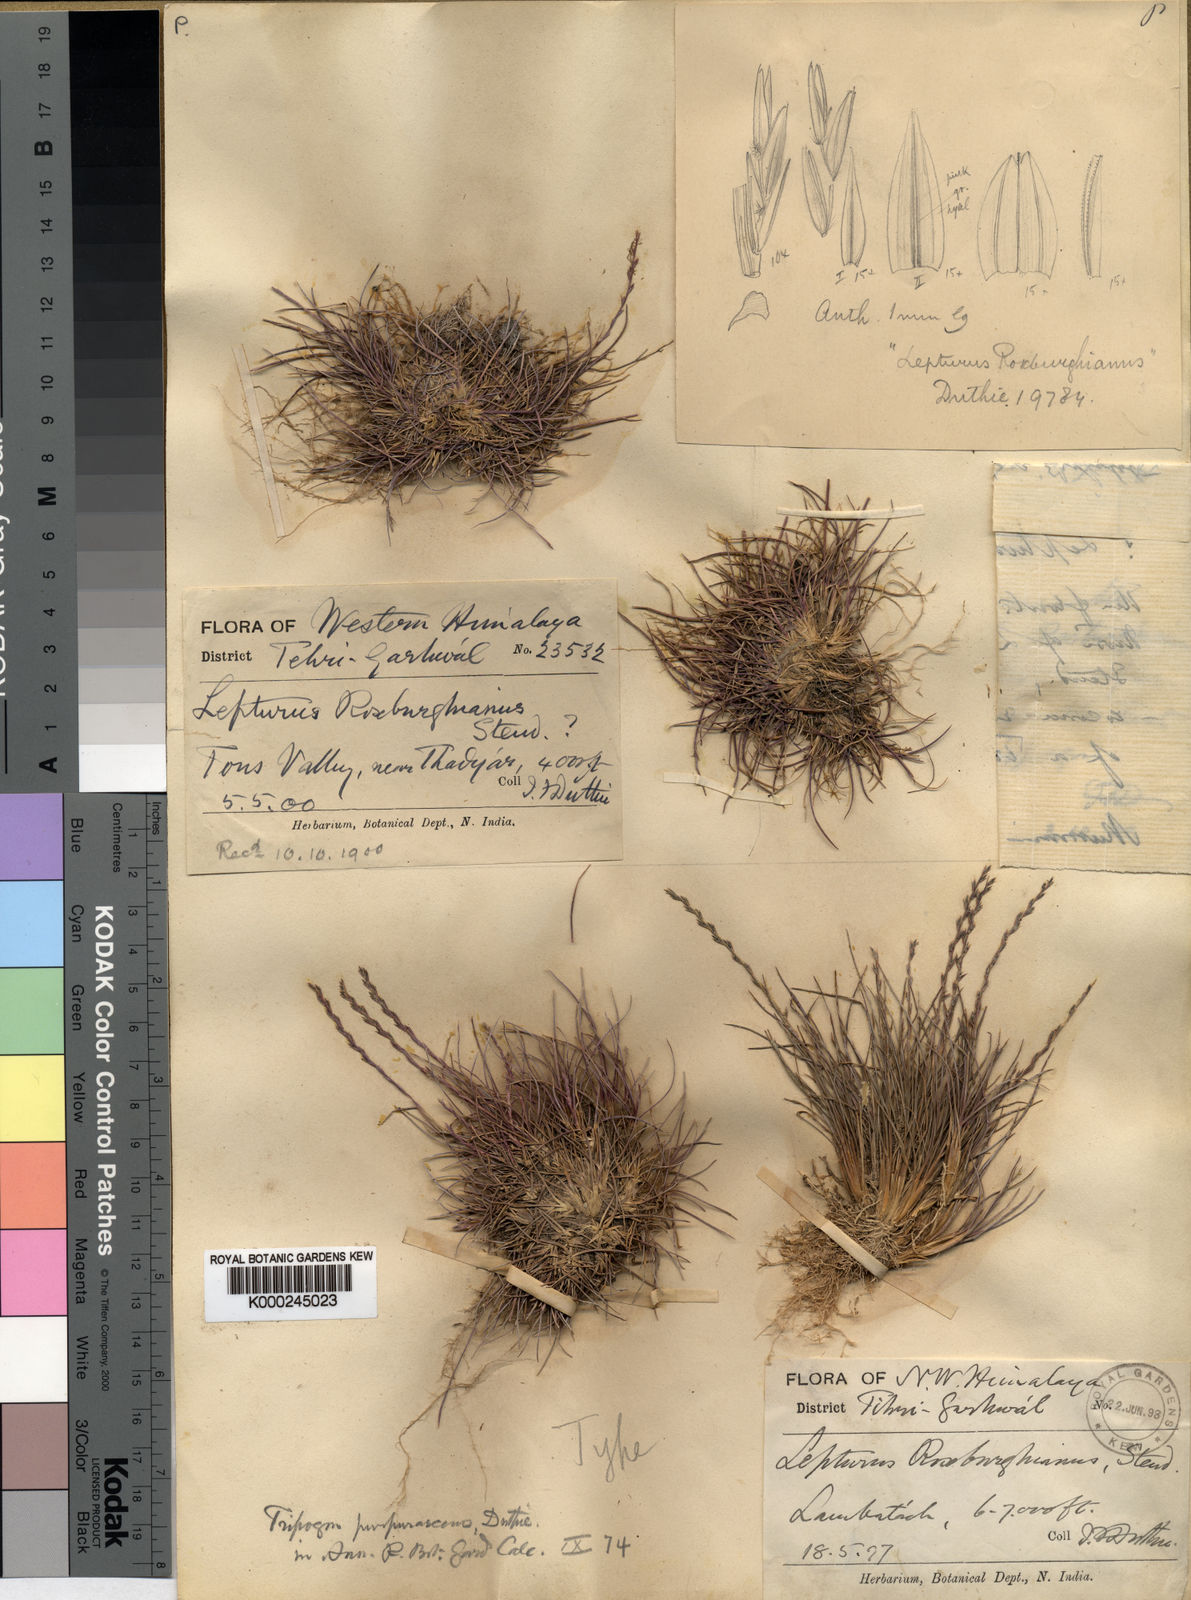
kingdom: Plantae
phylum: Tracheophyta
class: Liliopsida
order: Poales
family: Poaceae
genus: Tripogon
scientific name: Tripogon purpurascens
